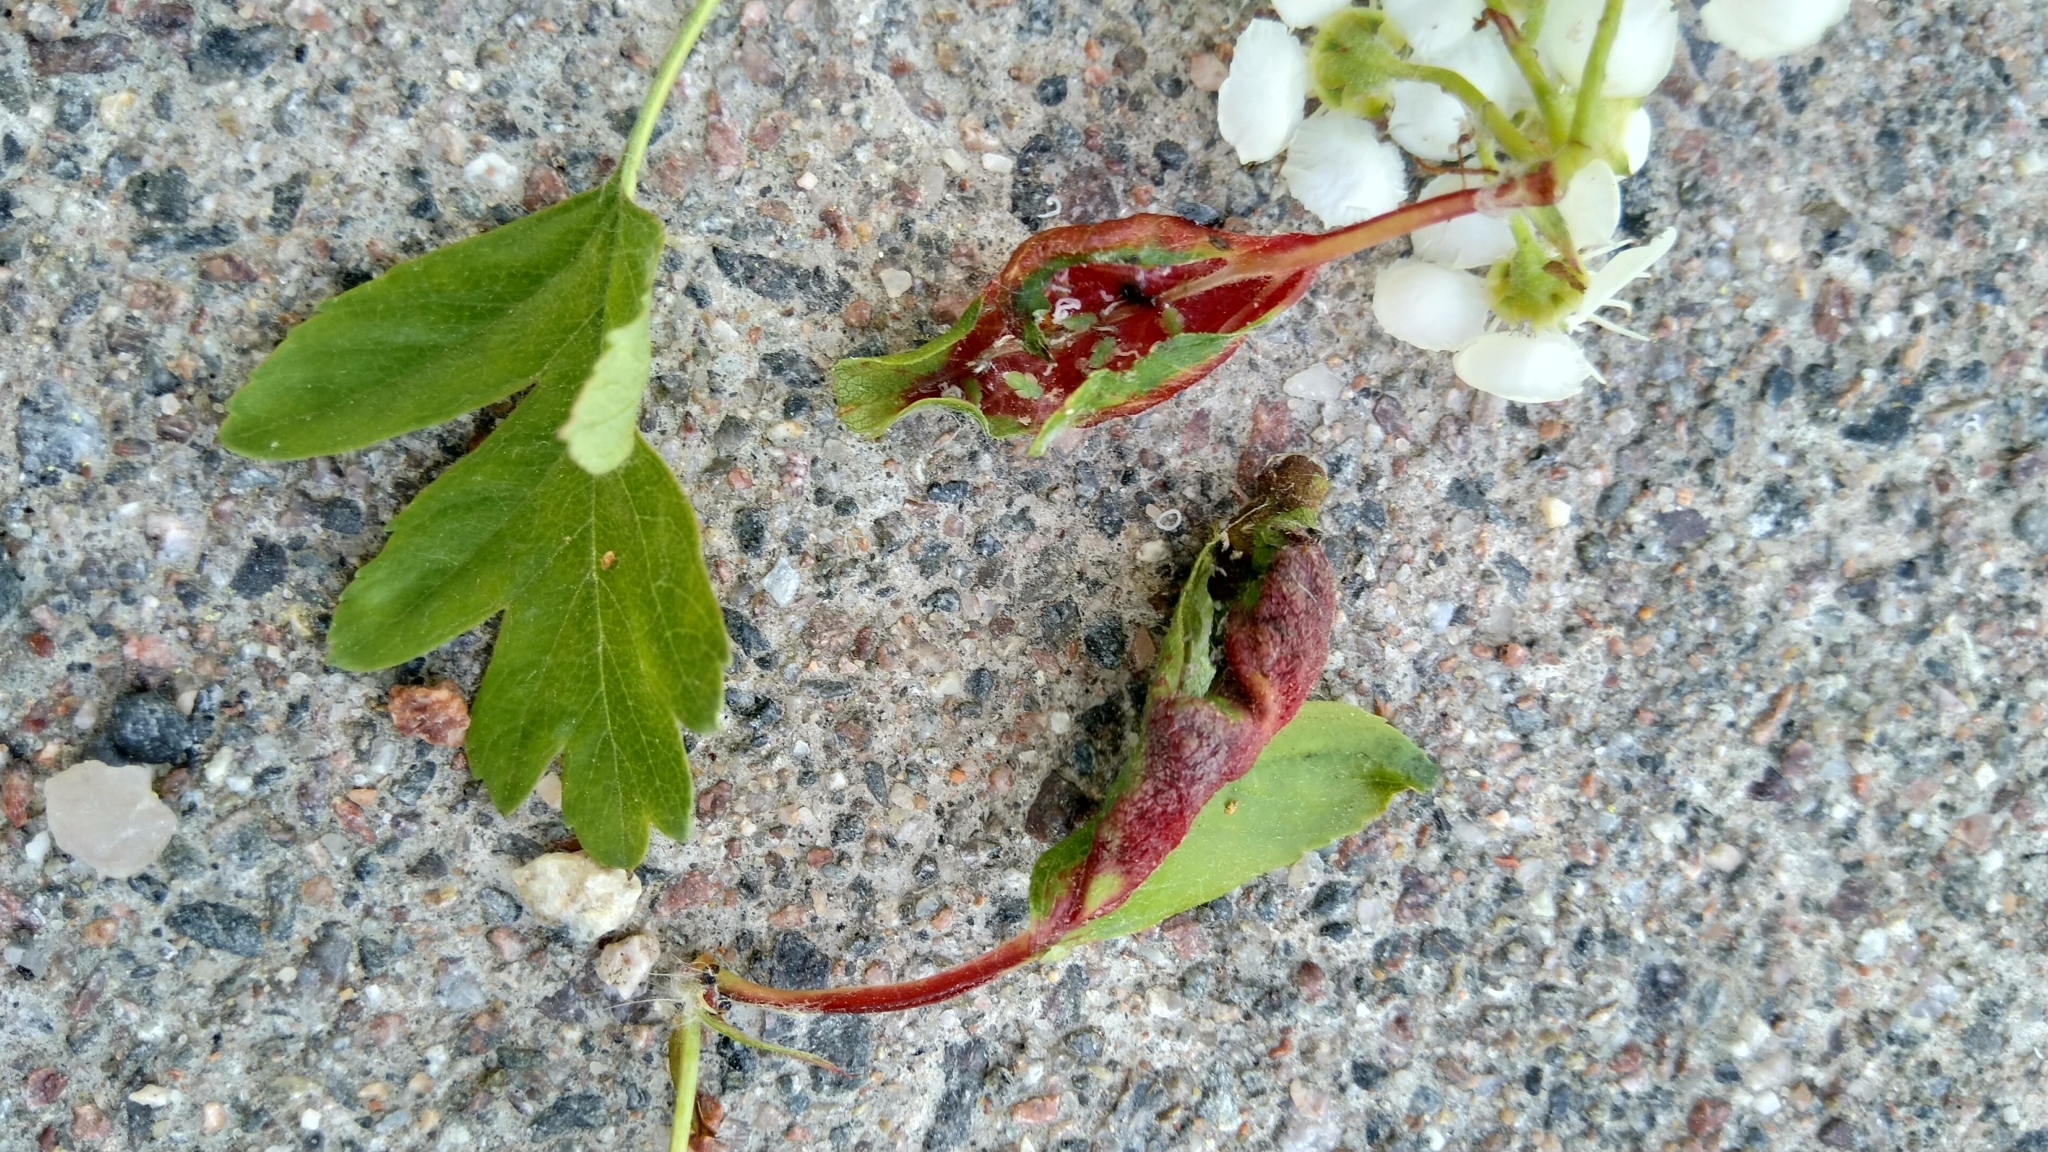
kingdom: Animalia
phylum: Arthropoda
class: Insecta
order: Hemiptera
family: Aphididae
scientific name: Aphididae
